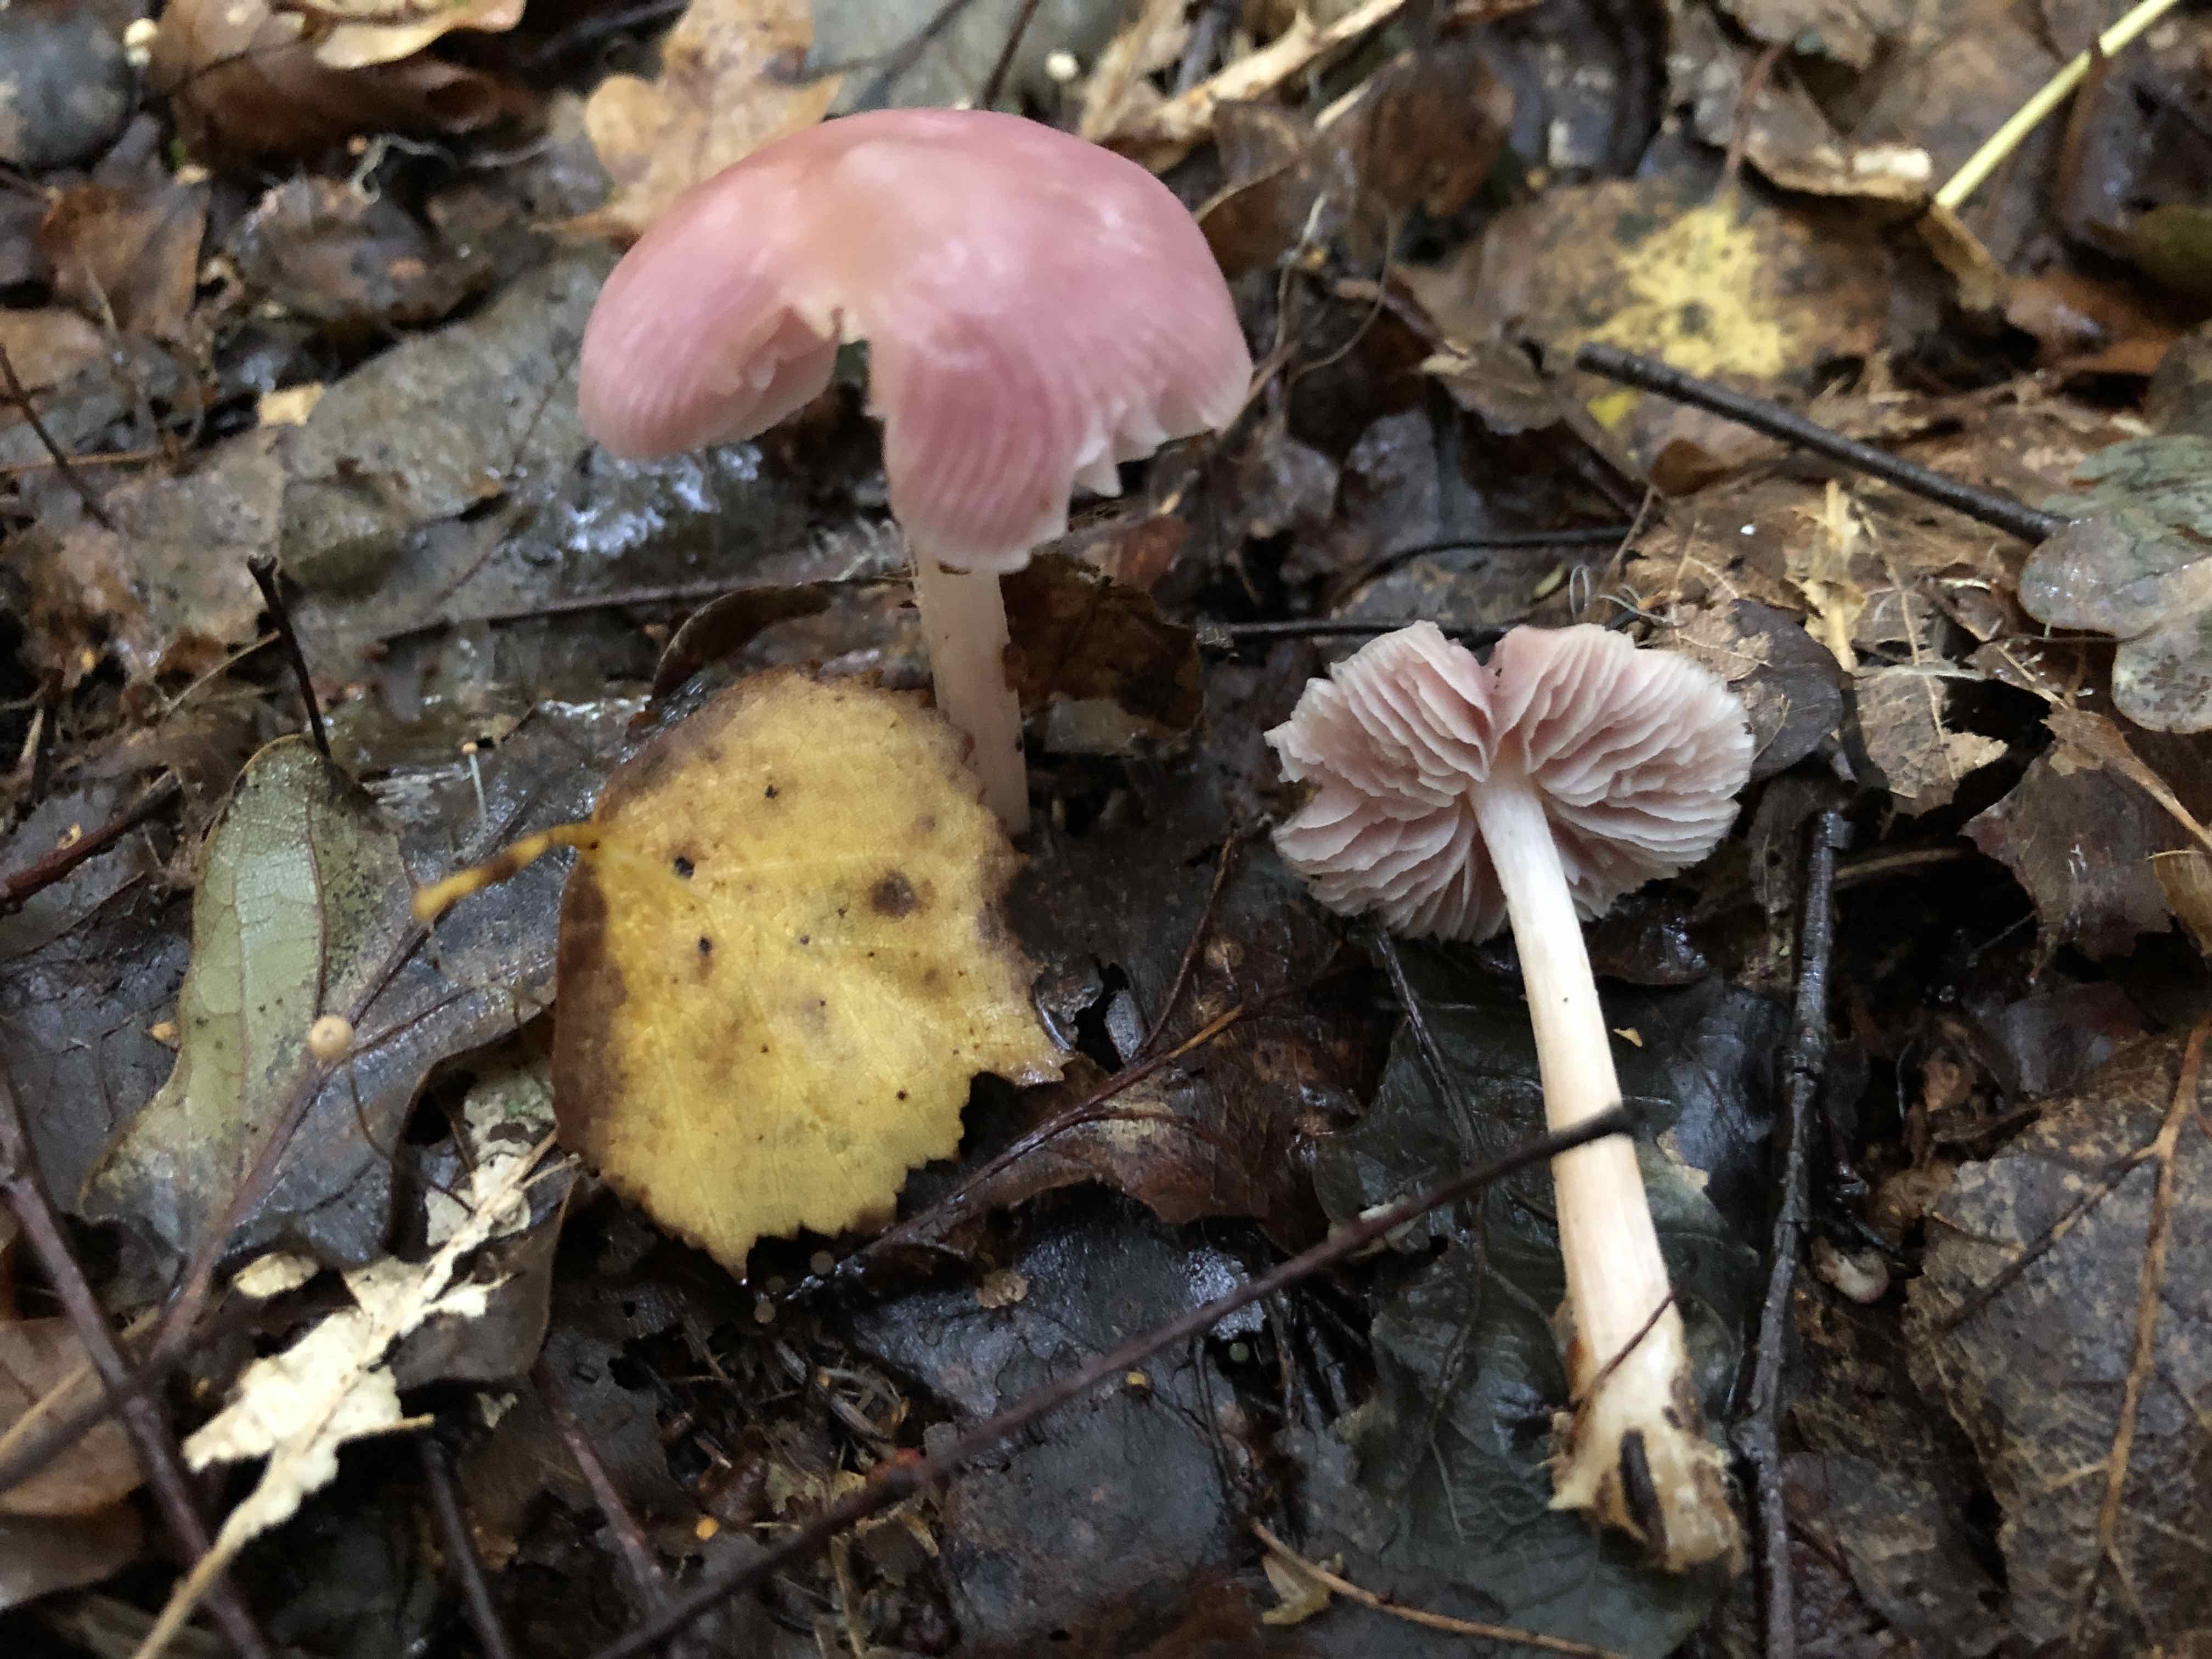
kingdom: Fungi
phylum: Basidiomycota
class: Agaricomycetes
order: Agaricales
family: Mycenaceae
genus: Mycena
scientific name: Mycena rosea
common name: rosa huesvamp
